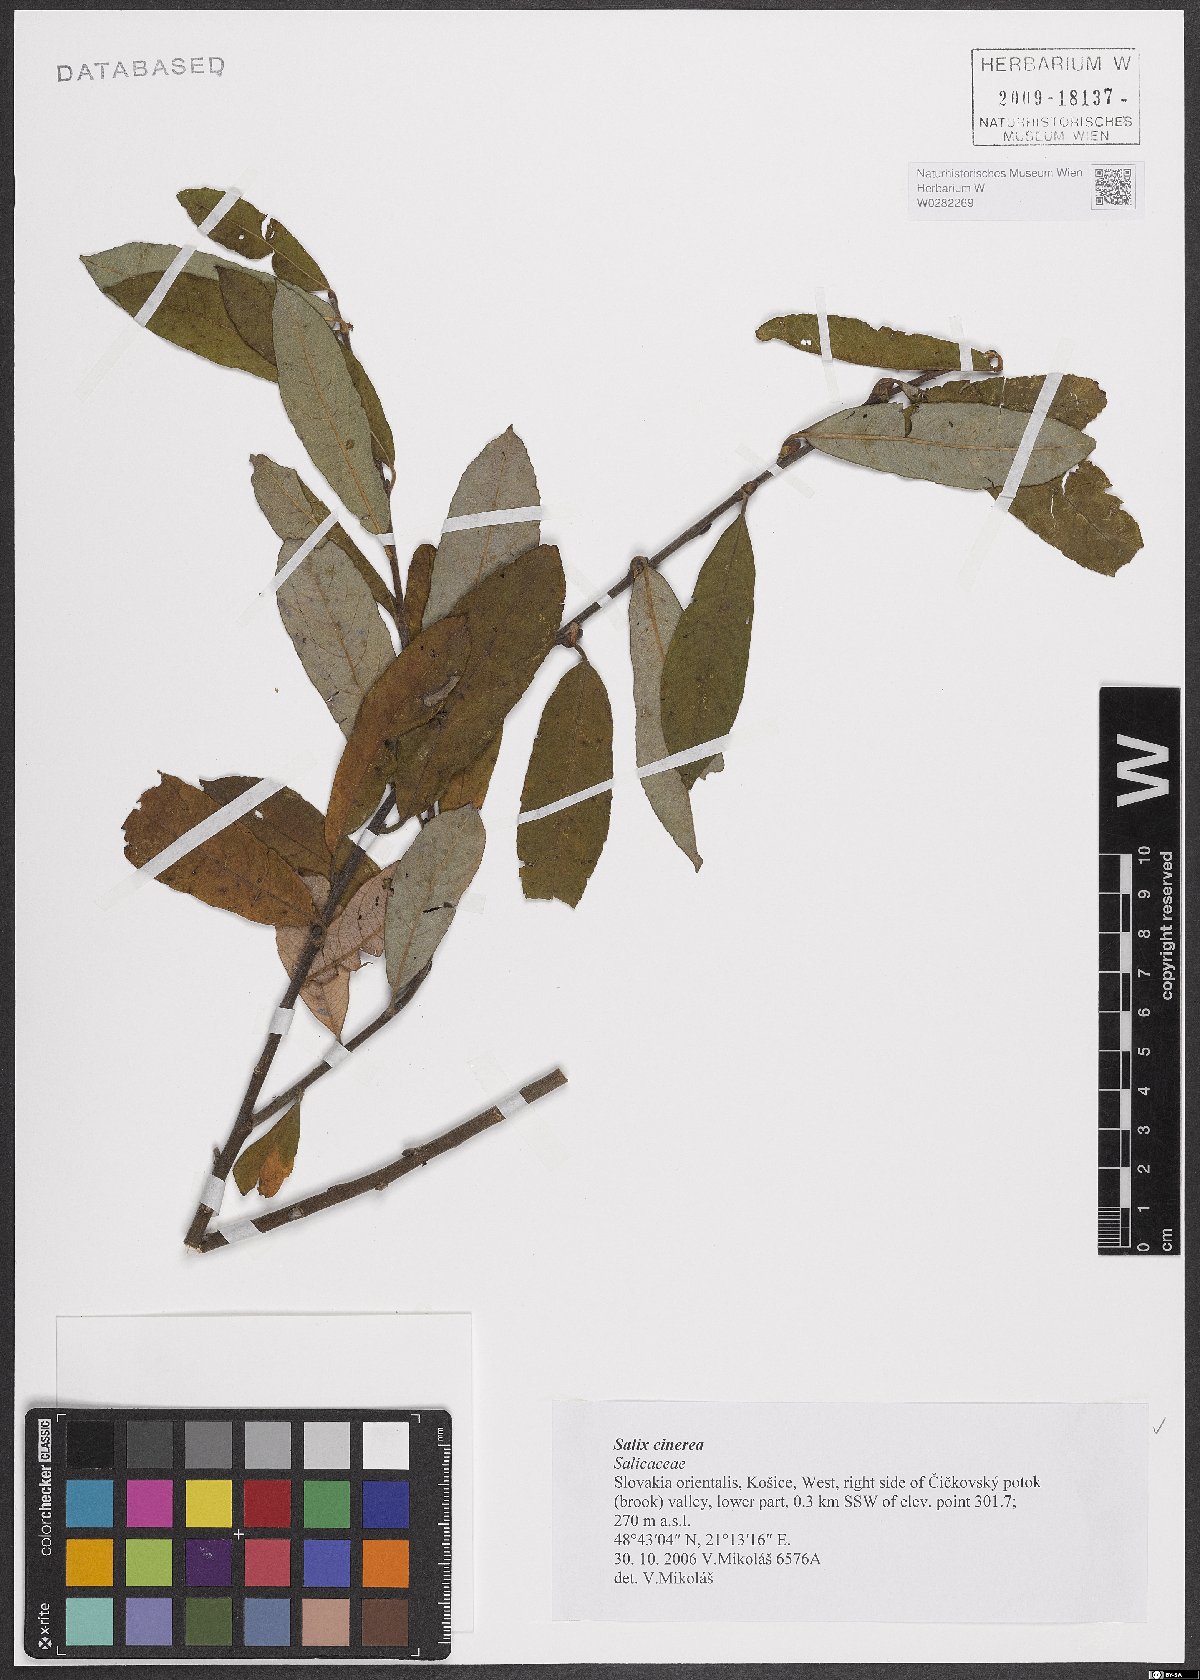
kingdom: Plantae
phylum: Tracheophyta
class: Magnoliopsida
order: Malpighiales
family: Salicaceae
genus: Salix
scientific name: Salix cinerea
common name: Common sallow
